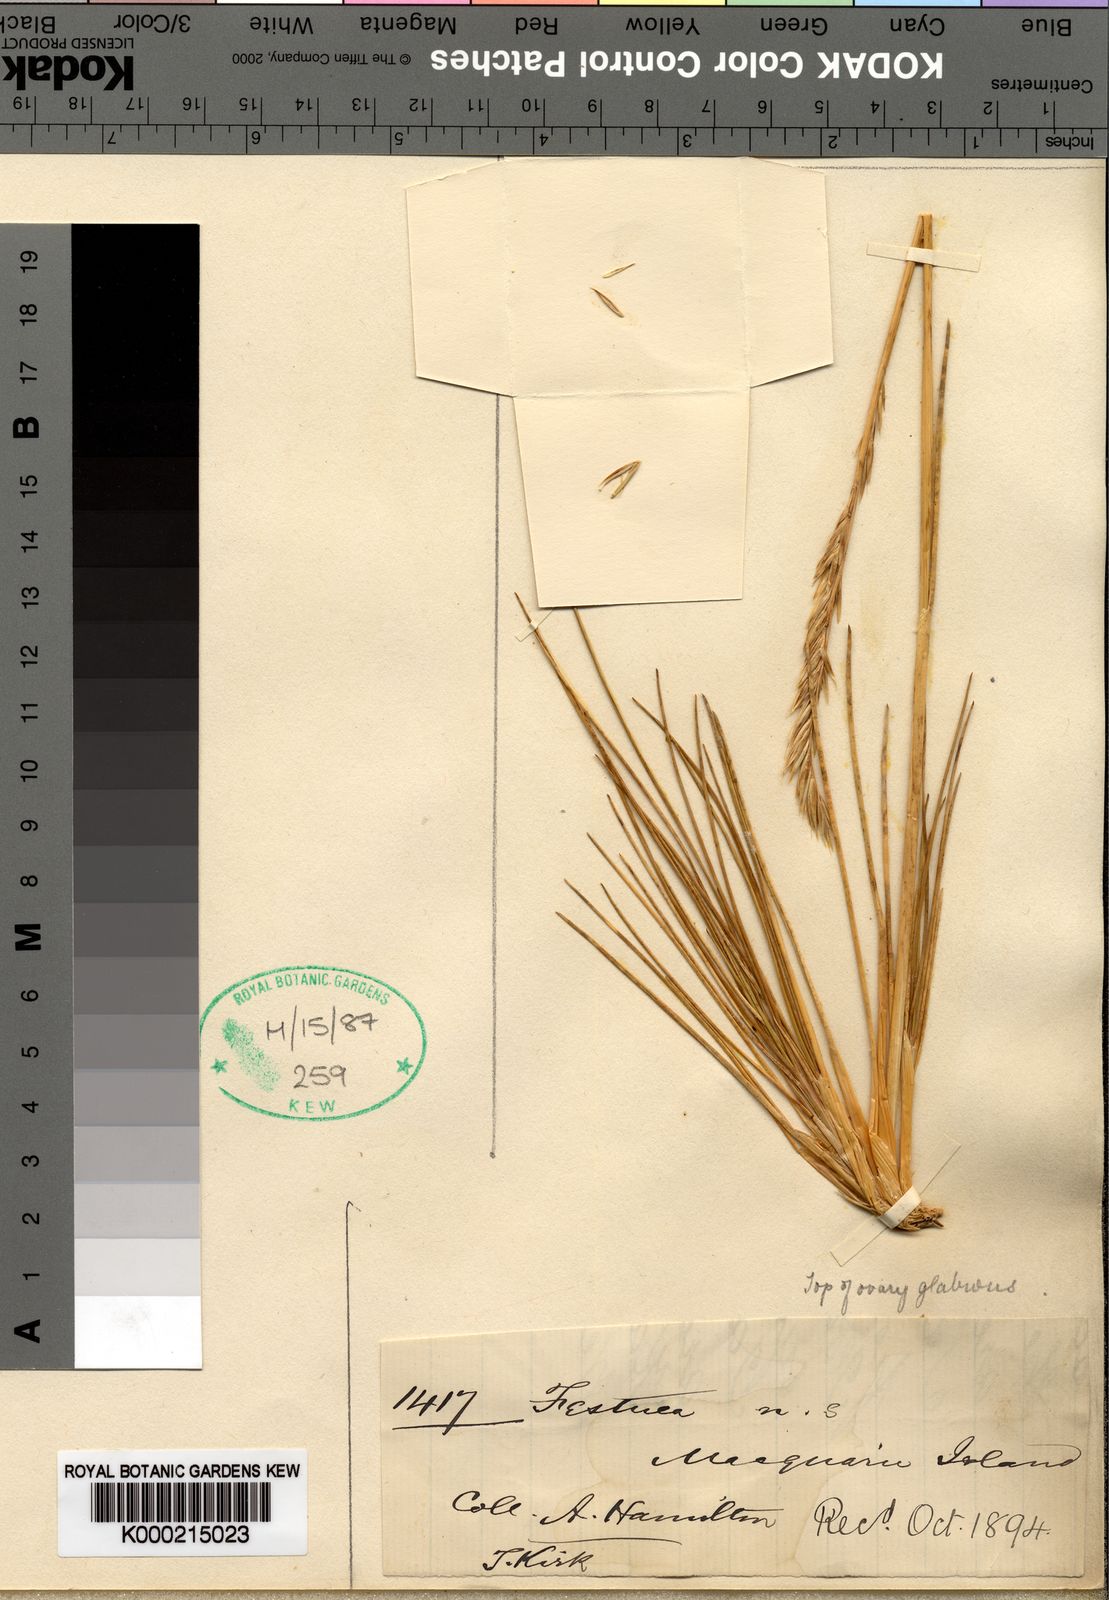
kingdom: Plantae
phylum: Tracheophyta
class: Liliopsida
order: Poales
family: Poaceae
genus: Festuca
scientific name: Festuca contracta
